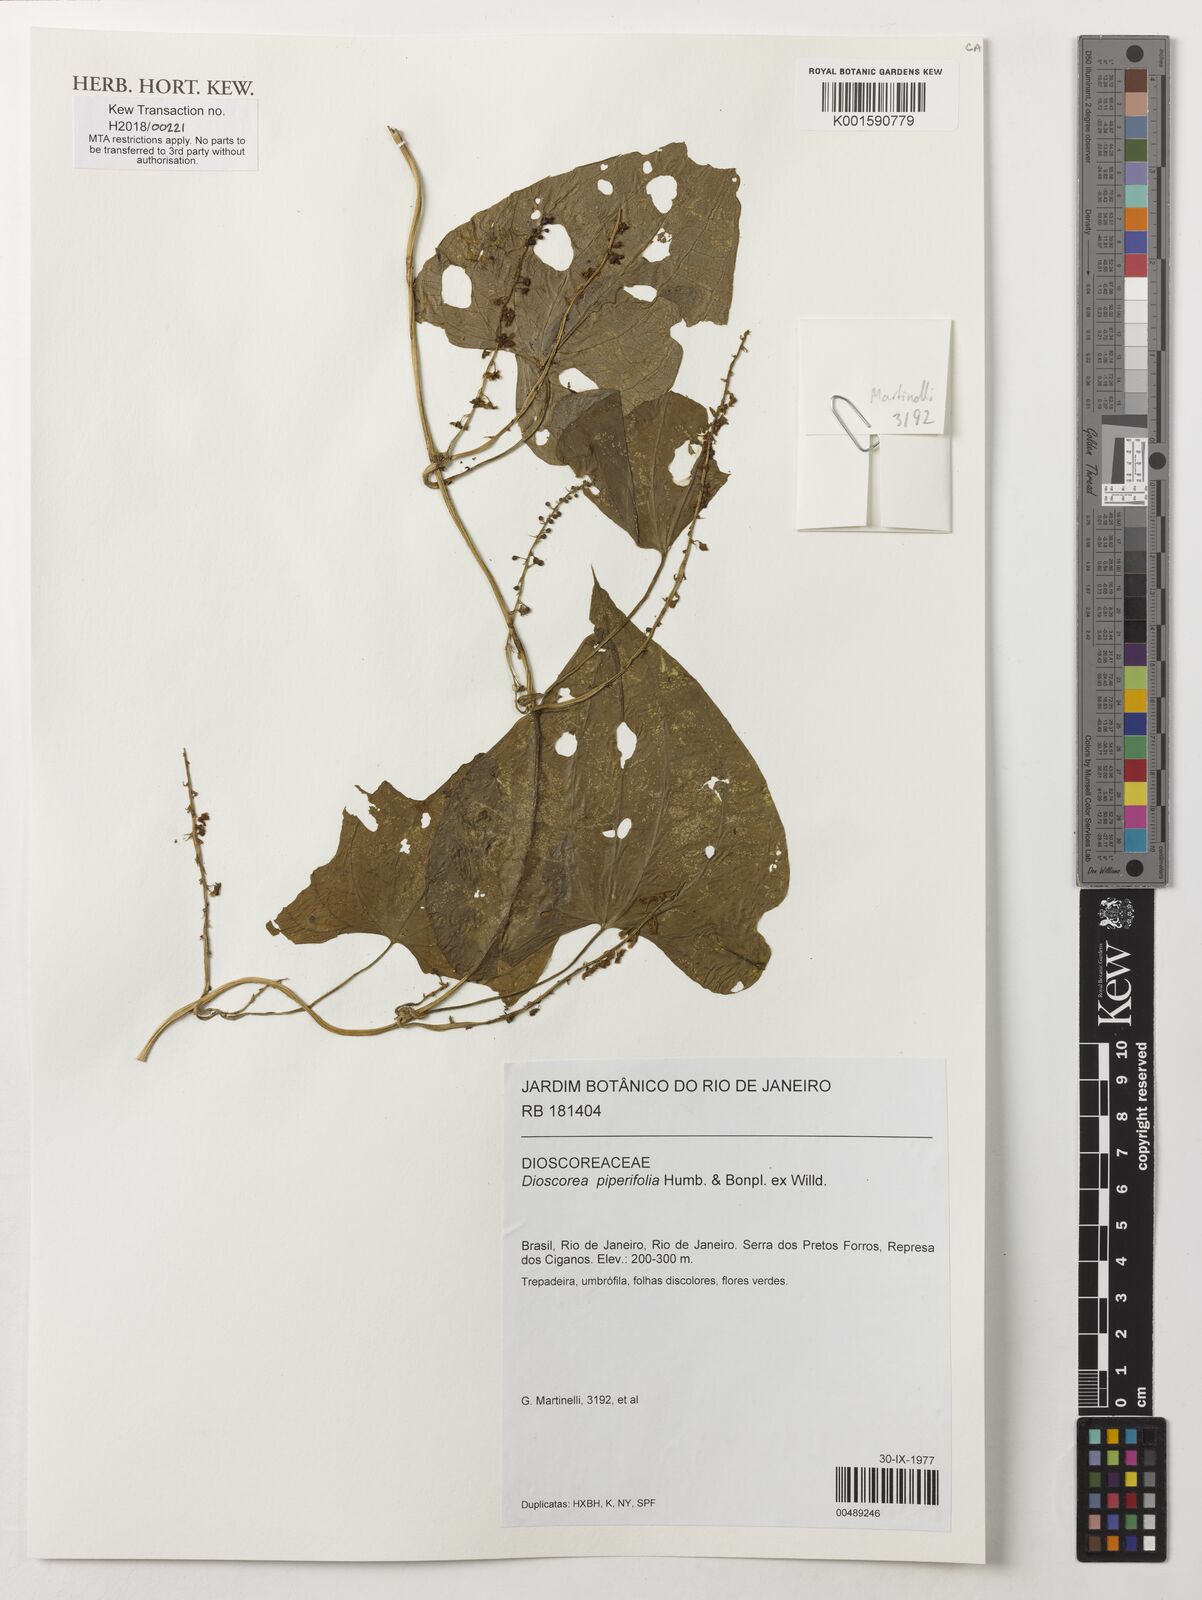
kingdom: Plantae
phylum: Tracheophyta
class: Liliopsida
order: Dioscoreales
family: Dioscoreaceae
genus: Dioscorea
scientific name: Dioscorea piperifolia
